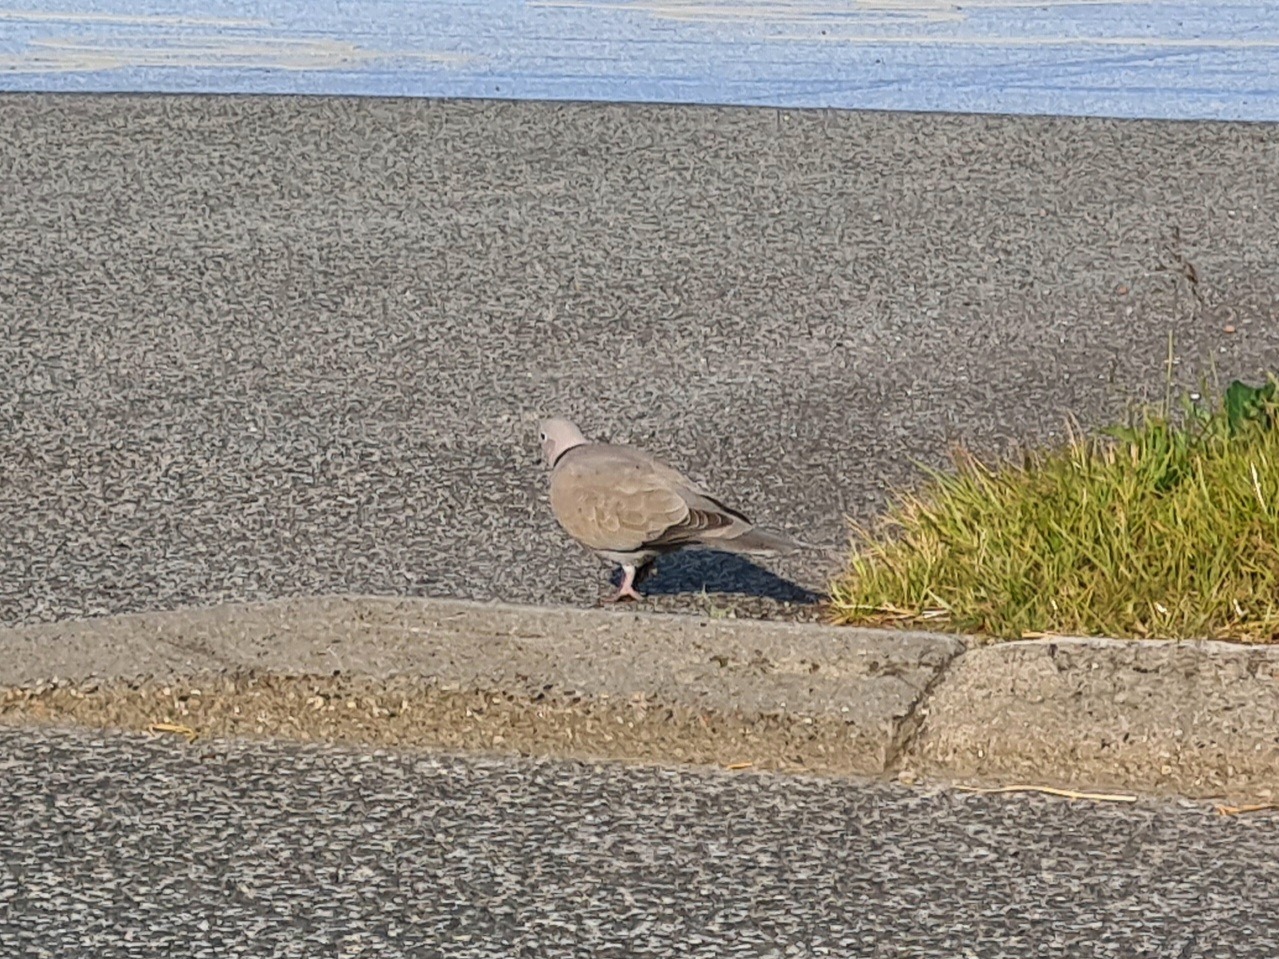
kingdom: Animalia
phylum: Chordata
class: Aves
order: Columbiformes
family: Columbidae
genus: Streptopelia
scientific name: Streptopelia decaocto
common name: Tyrkerdue
